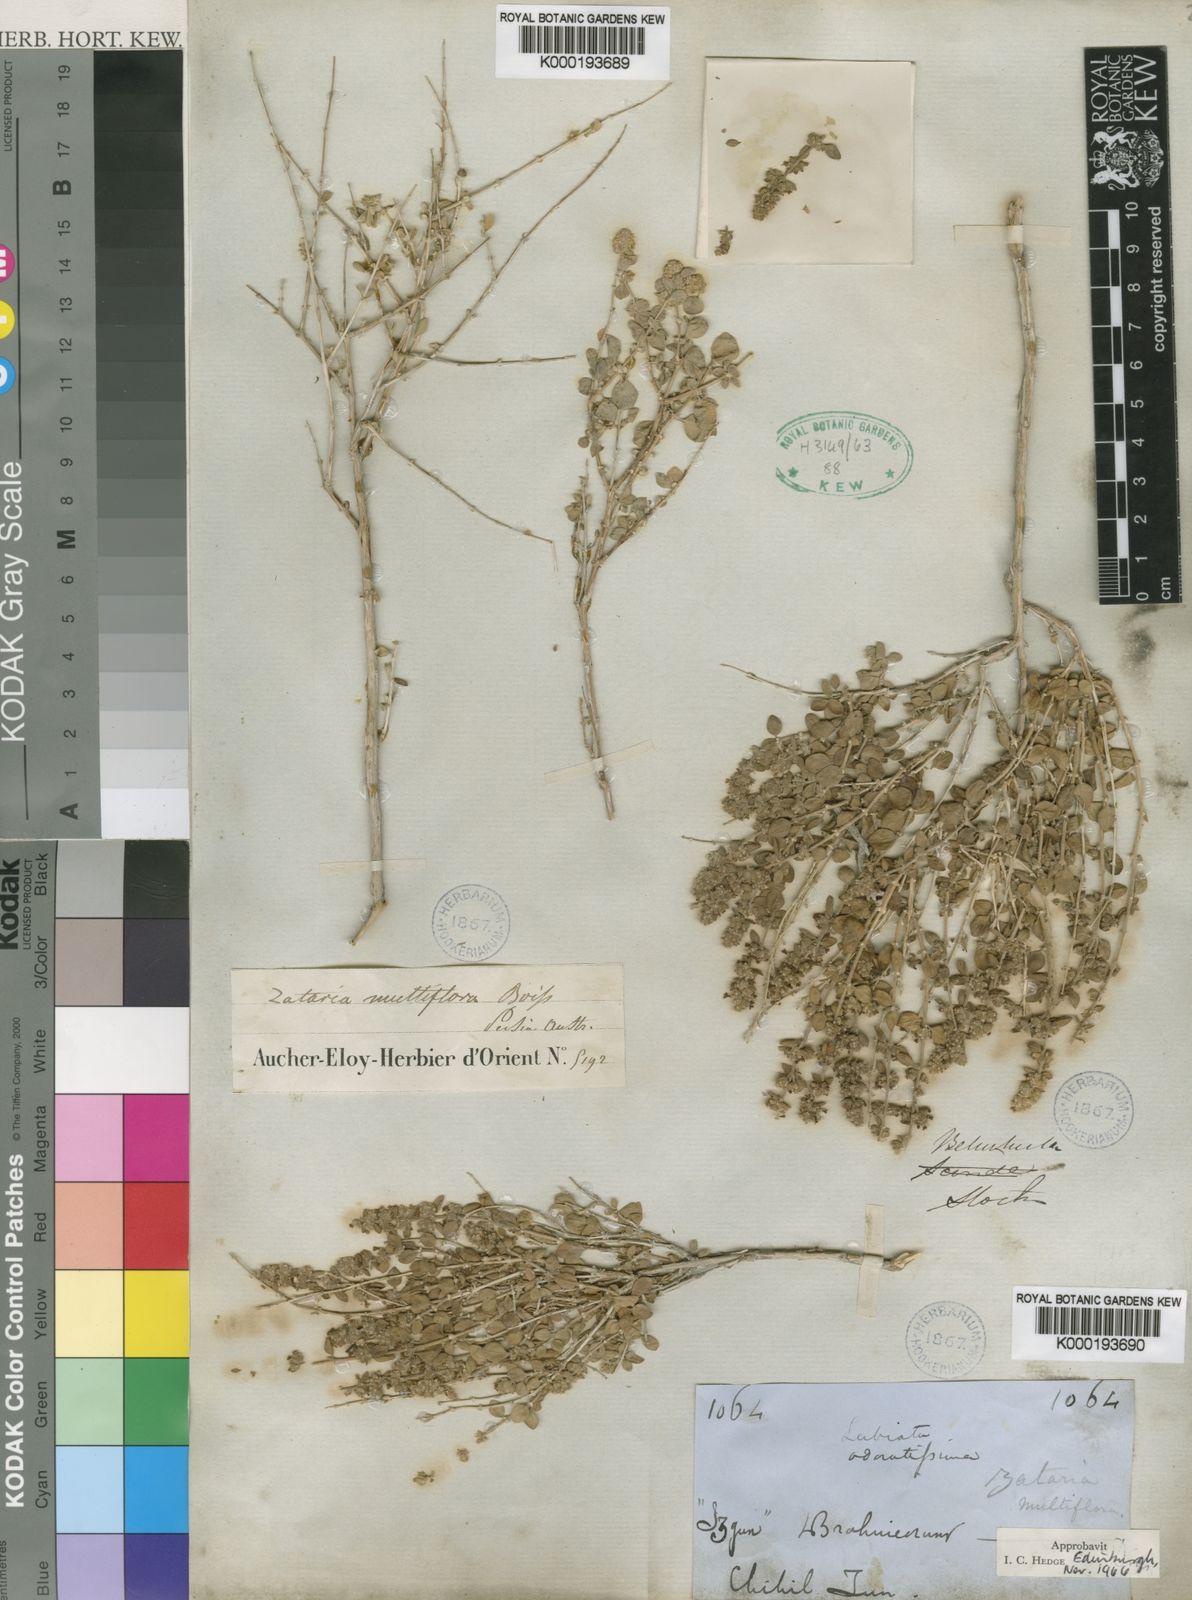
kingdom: Plantae
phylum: Tracheophyta
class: Magnoliopsida
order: Lamiales
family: Lamiaceae
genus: Zataria
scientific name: Zataria multiflora
